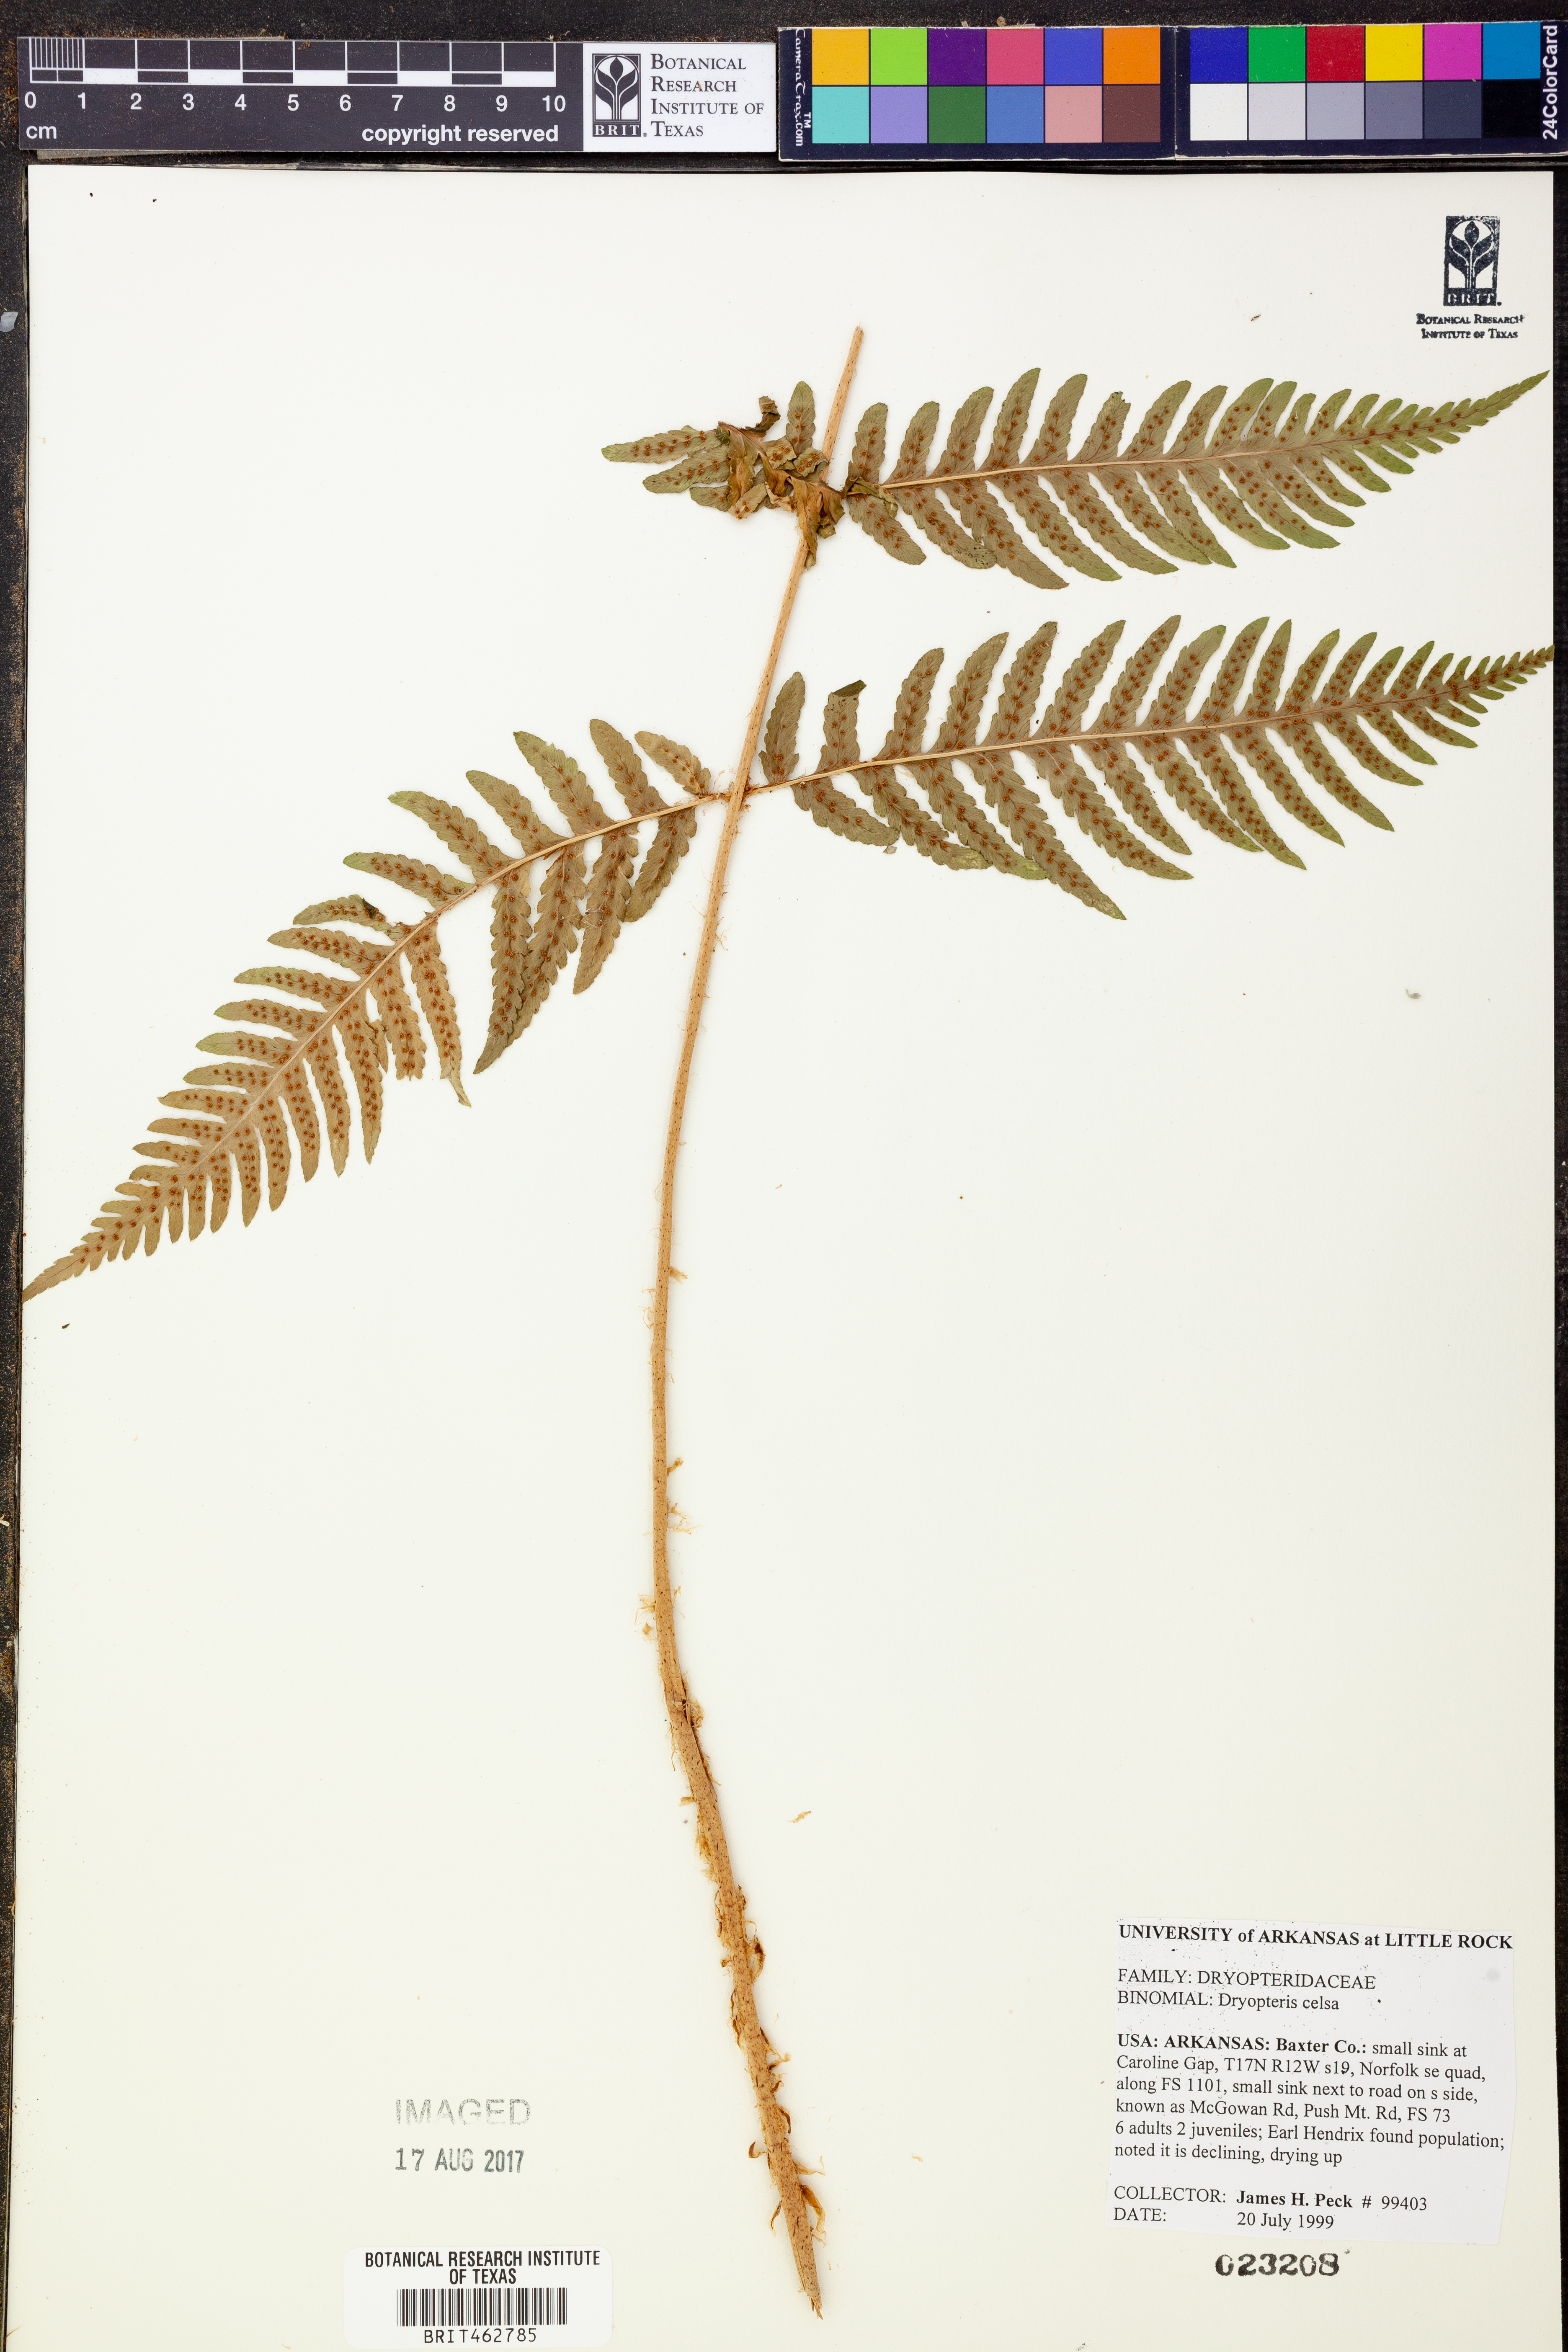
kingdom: Plantae
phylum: Tracheophyta
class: Polypodiopsida
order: Polypodiales
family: Dryopteridaceae
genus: Dryopteris
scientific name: Dryopteris celsa
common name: Log fern
